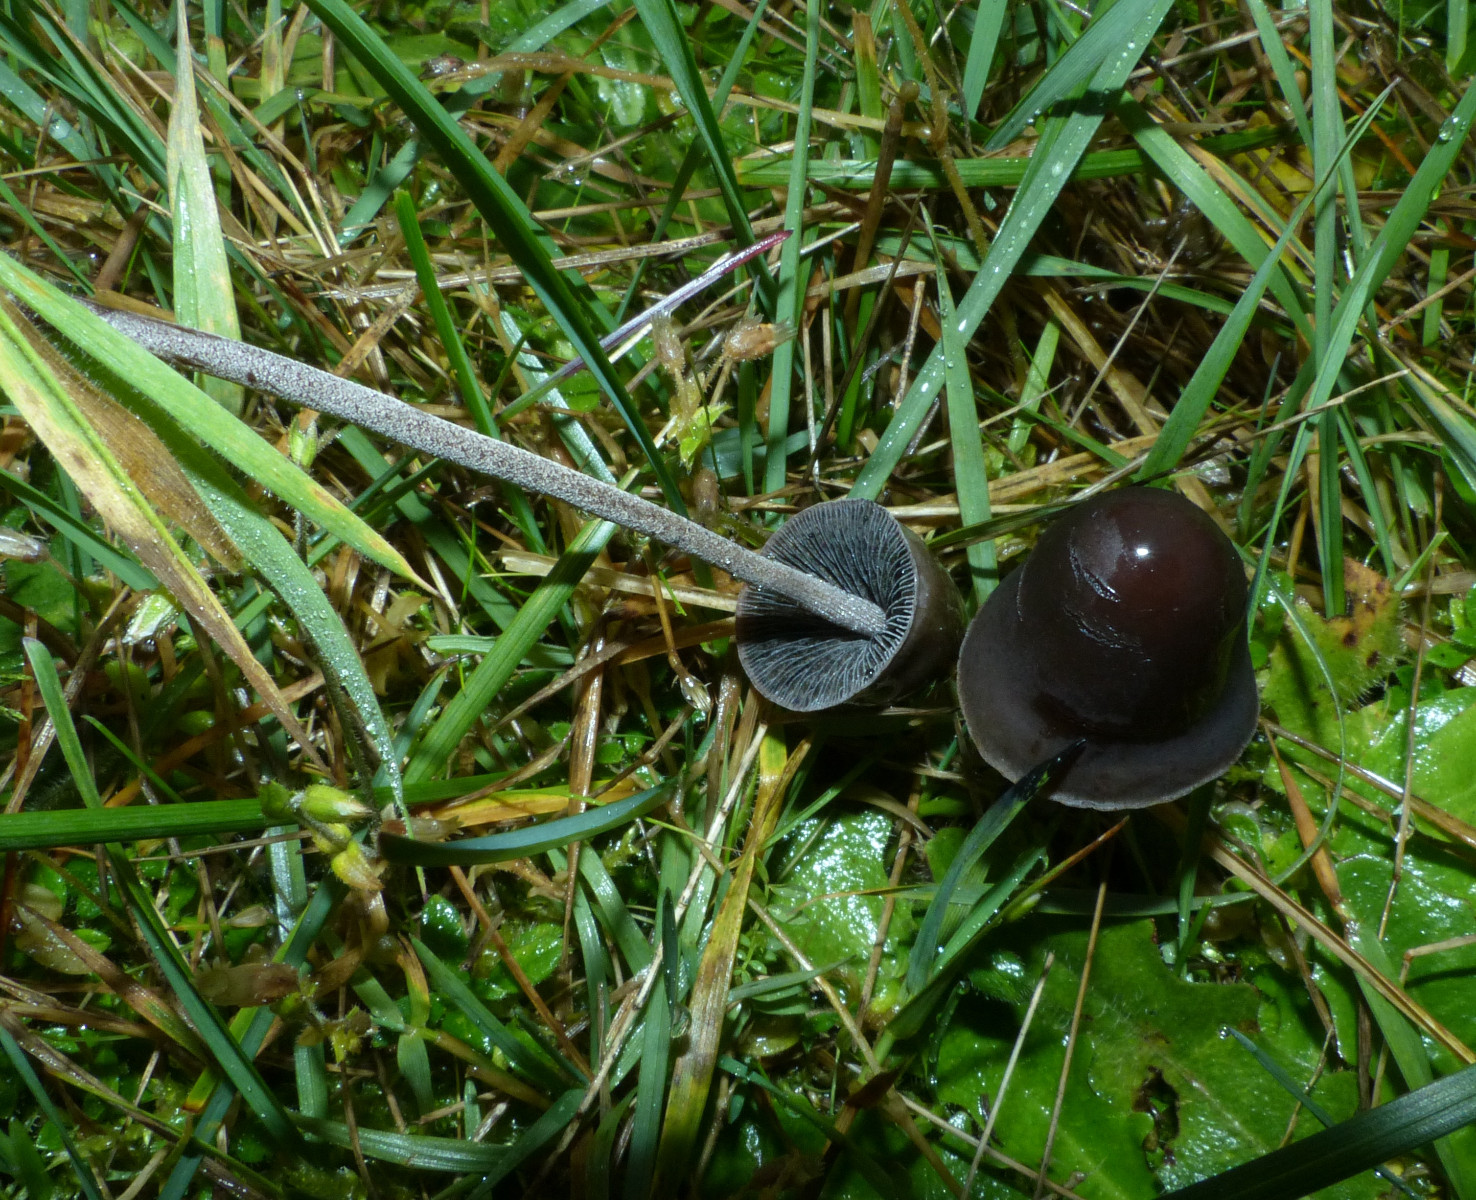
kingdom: Fungi
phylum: Basidiomycota
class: Agaricomycetes
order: Agaricales
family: Bolbitiaceae
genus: Panaeolus
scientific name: Panaeolus acuminatus
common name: høj glanshat
